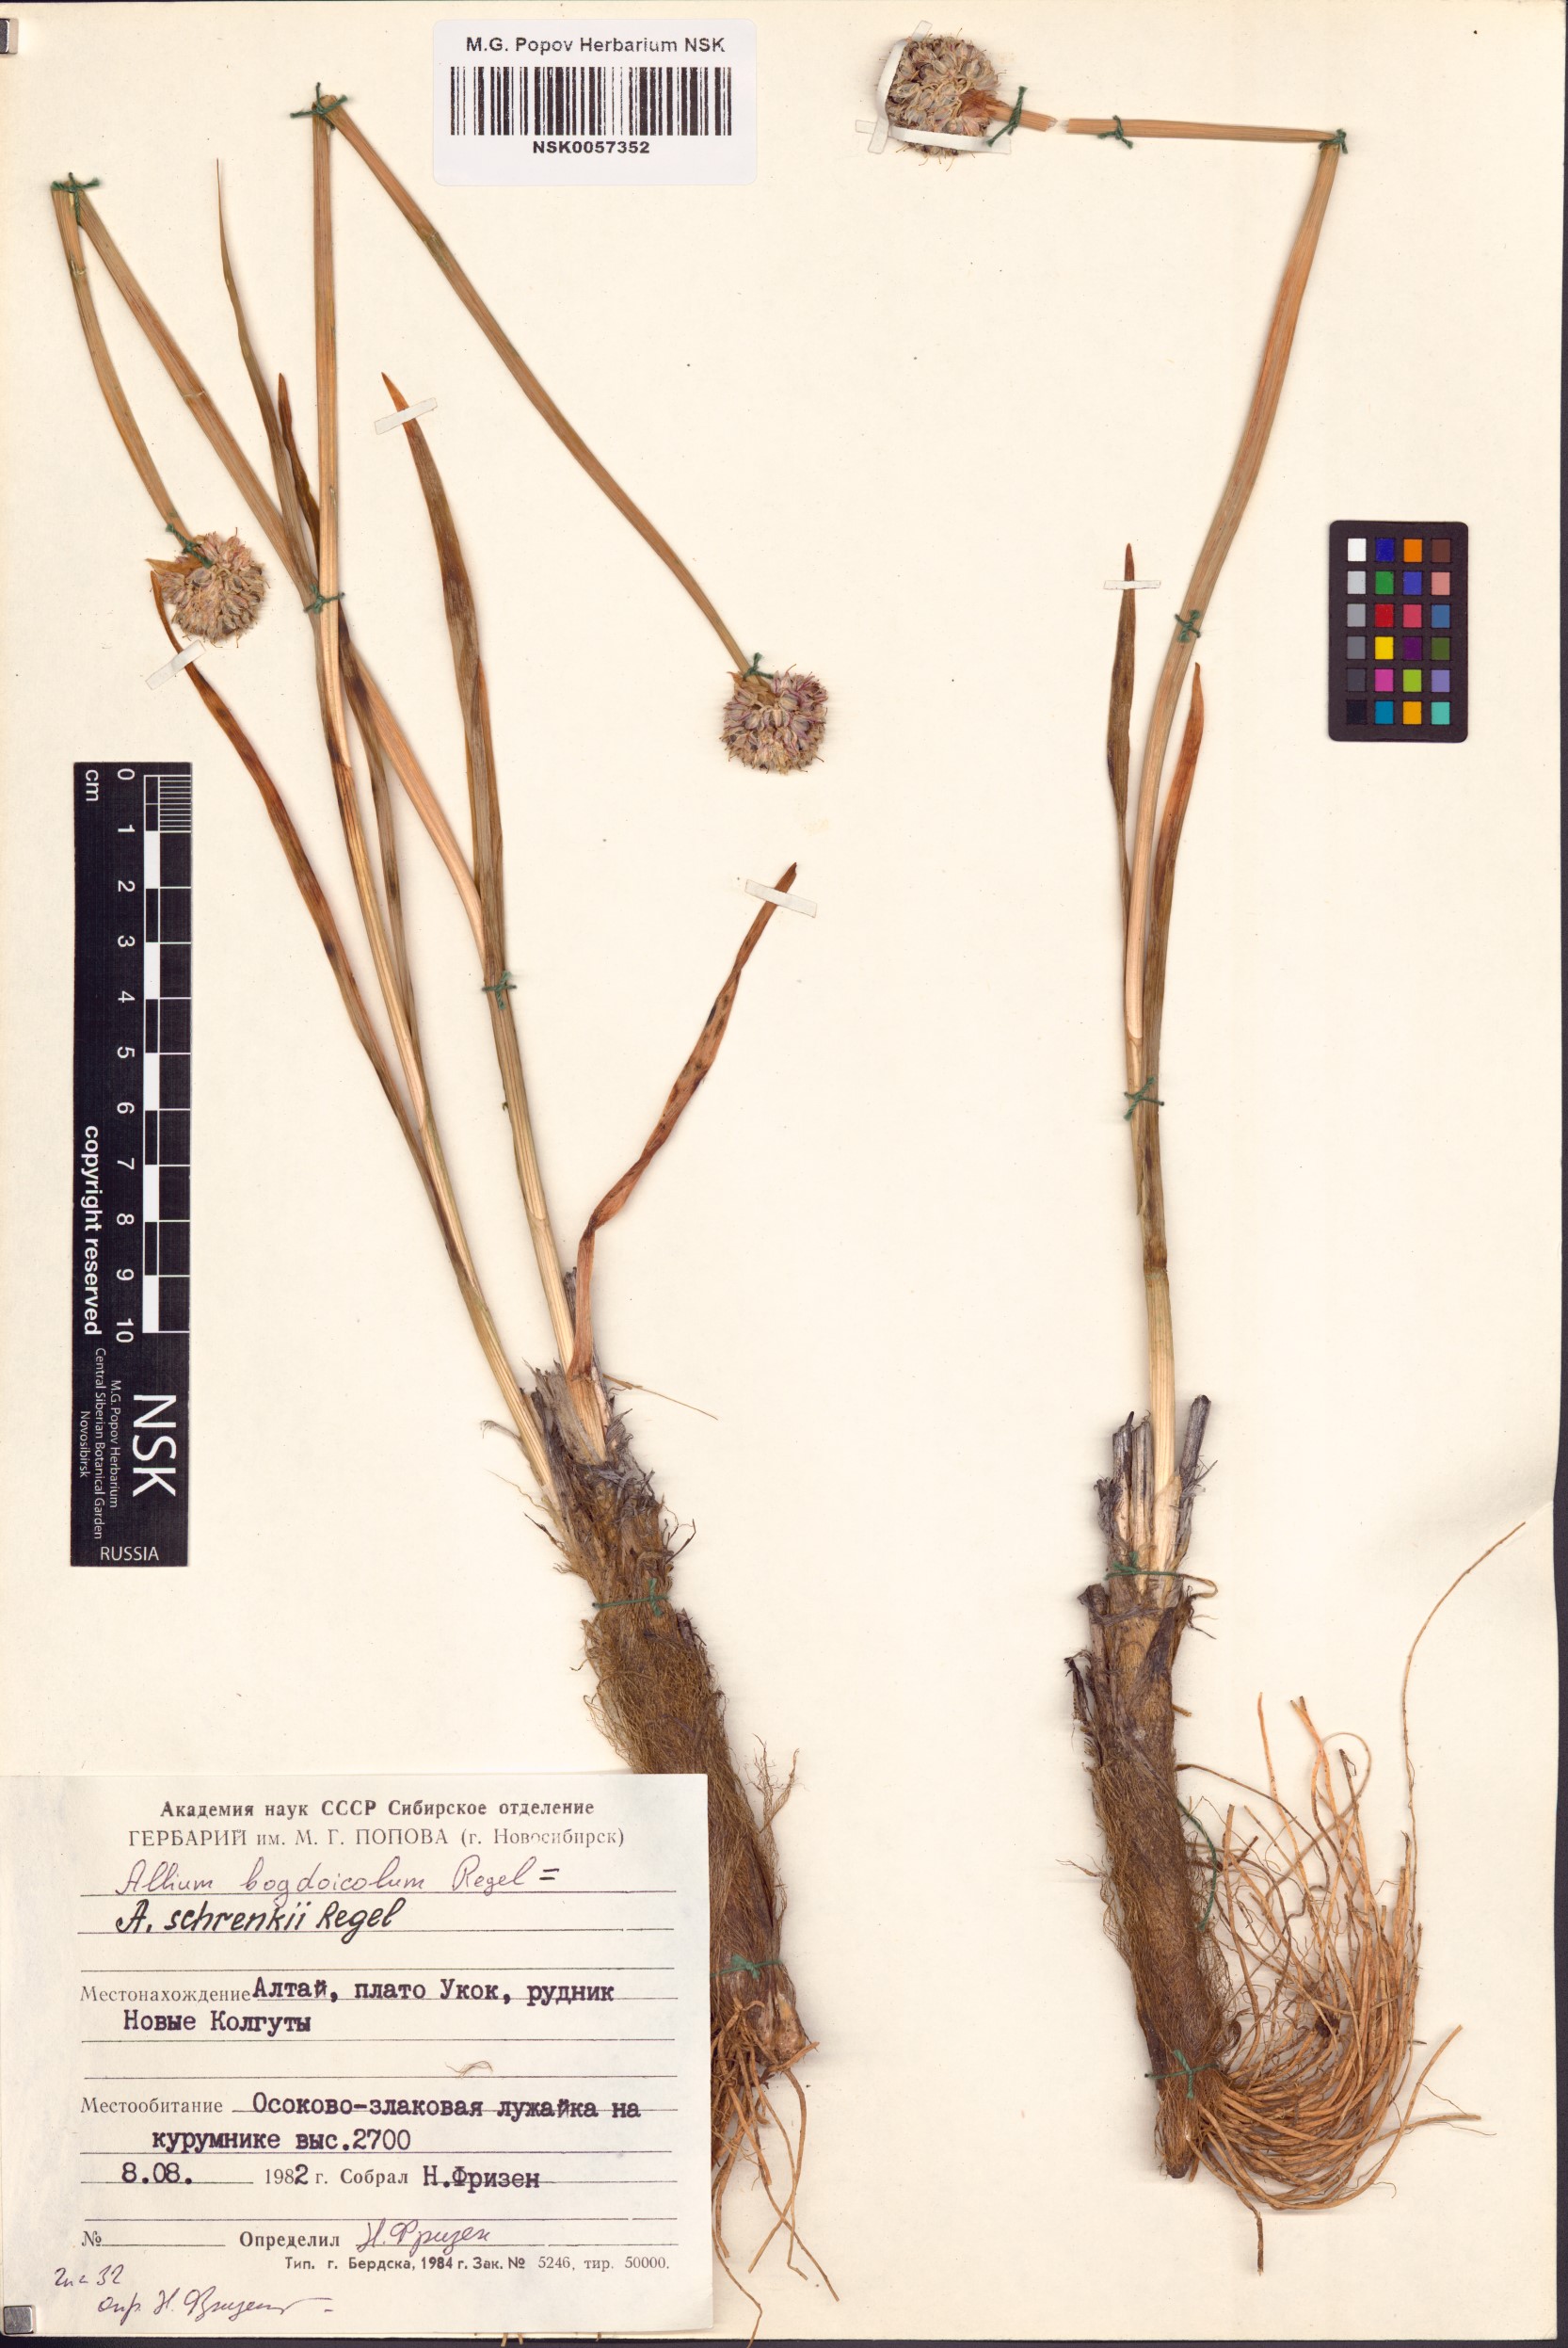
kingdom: Plantae
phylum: Tracheophyta
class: Liliopsida
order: Asparagales
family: Amaryllidaceae
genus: Allium
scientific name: Allium schrenkii
